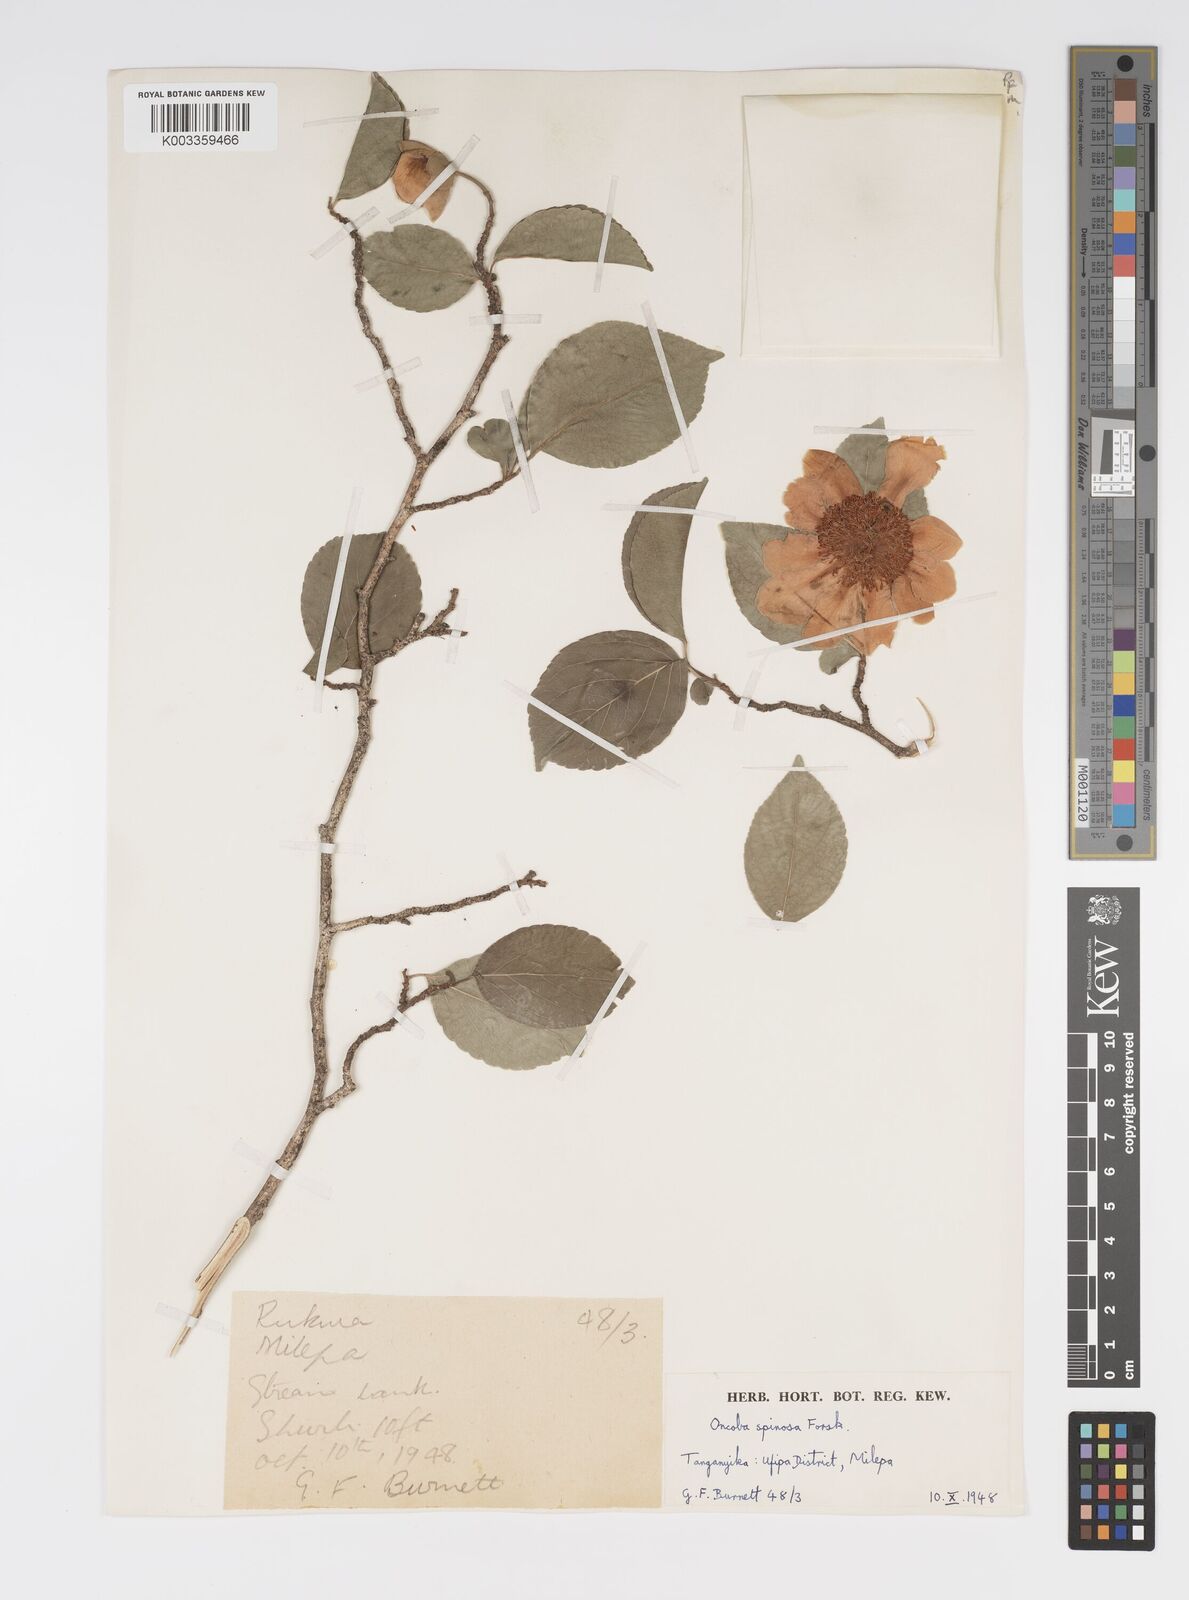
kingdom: Plantae
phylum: Tracheophyta
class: Magnoliopsida
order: Malpighiales
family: Salicaceae
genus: Oncoba
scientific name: Oncoba spinosa
